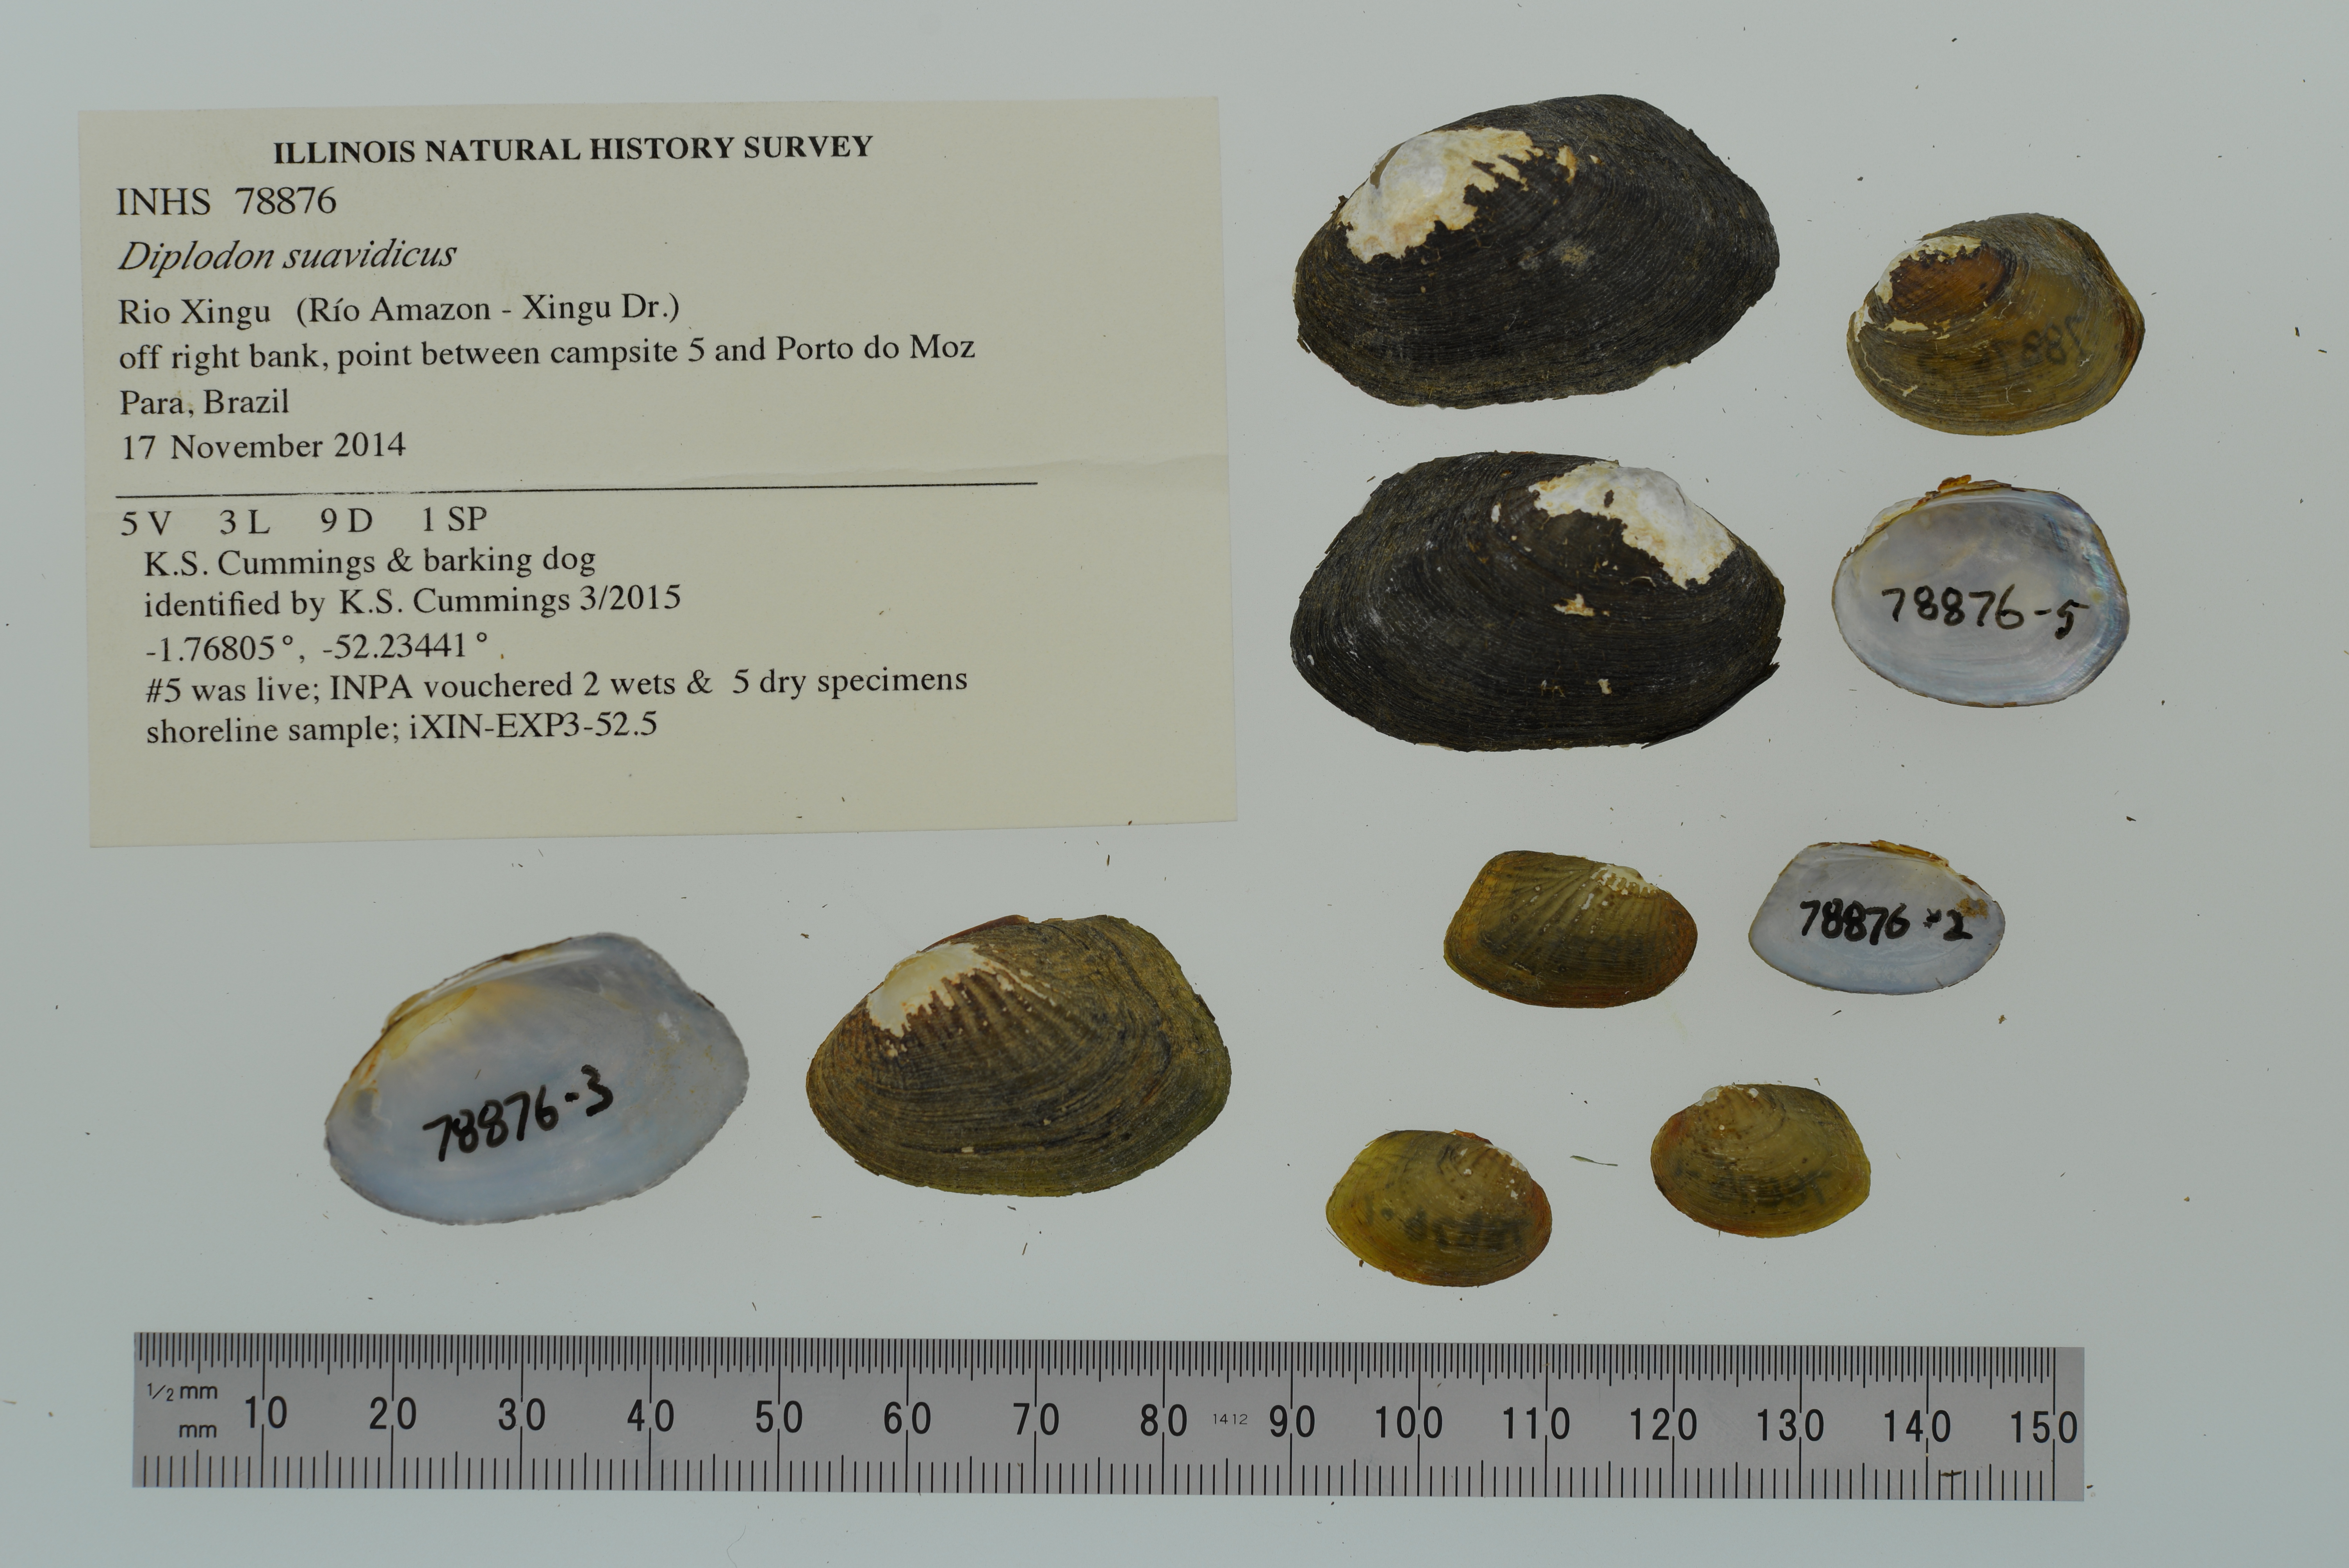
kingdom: Animalia
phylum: Mollusca
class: Bivalvia
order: Unionida
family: Hyriidae
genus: Diplodon
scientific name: Diplodon suavidicus
